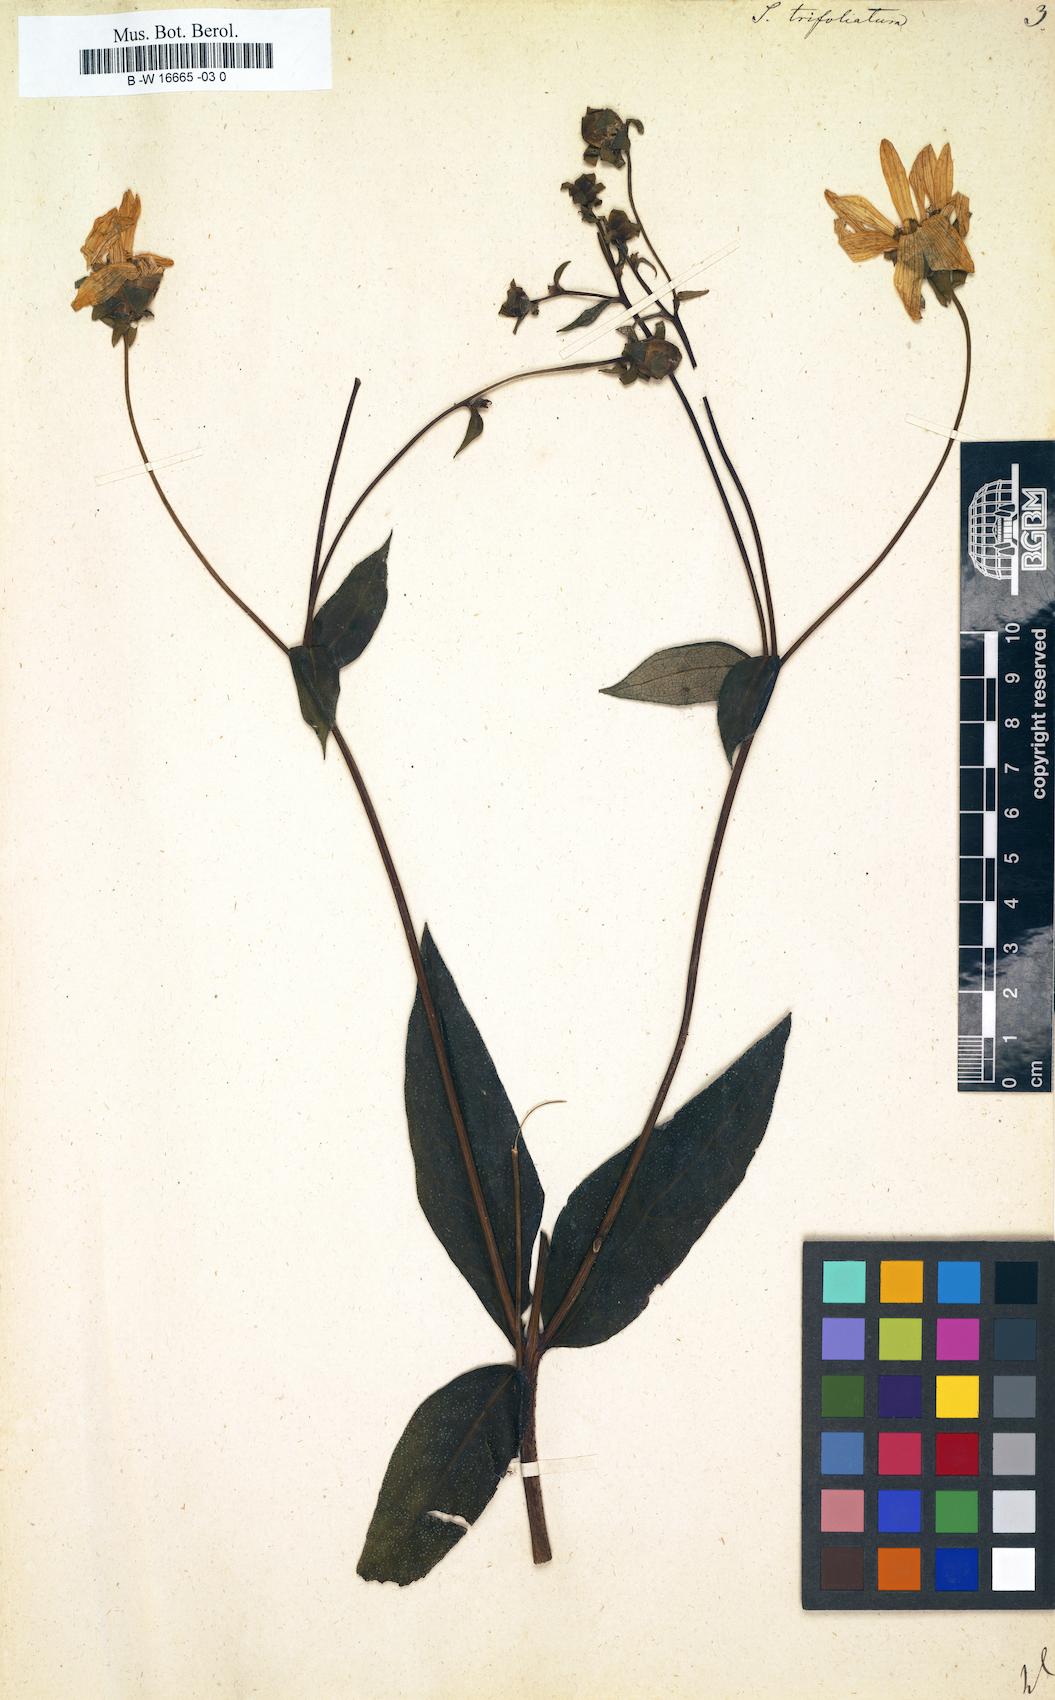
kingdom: Plantae
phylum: Tracheophyta
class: Magnoliopsida
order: Asterales
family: Asteraceae
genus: Silphium
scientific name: Silphium asteriscus
